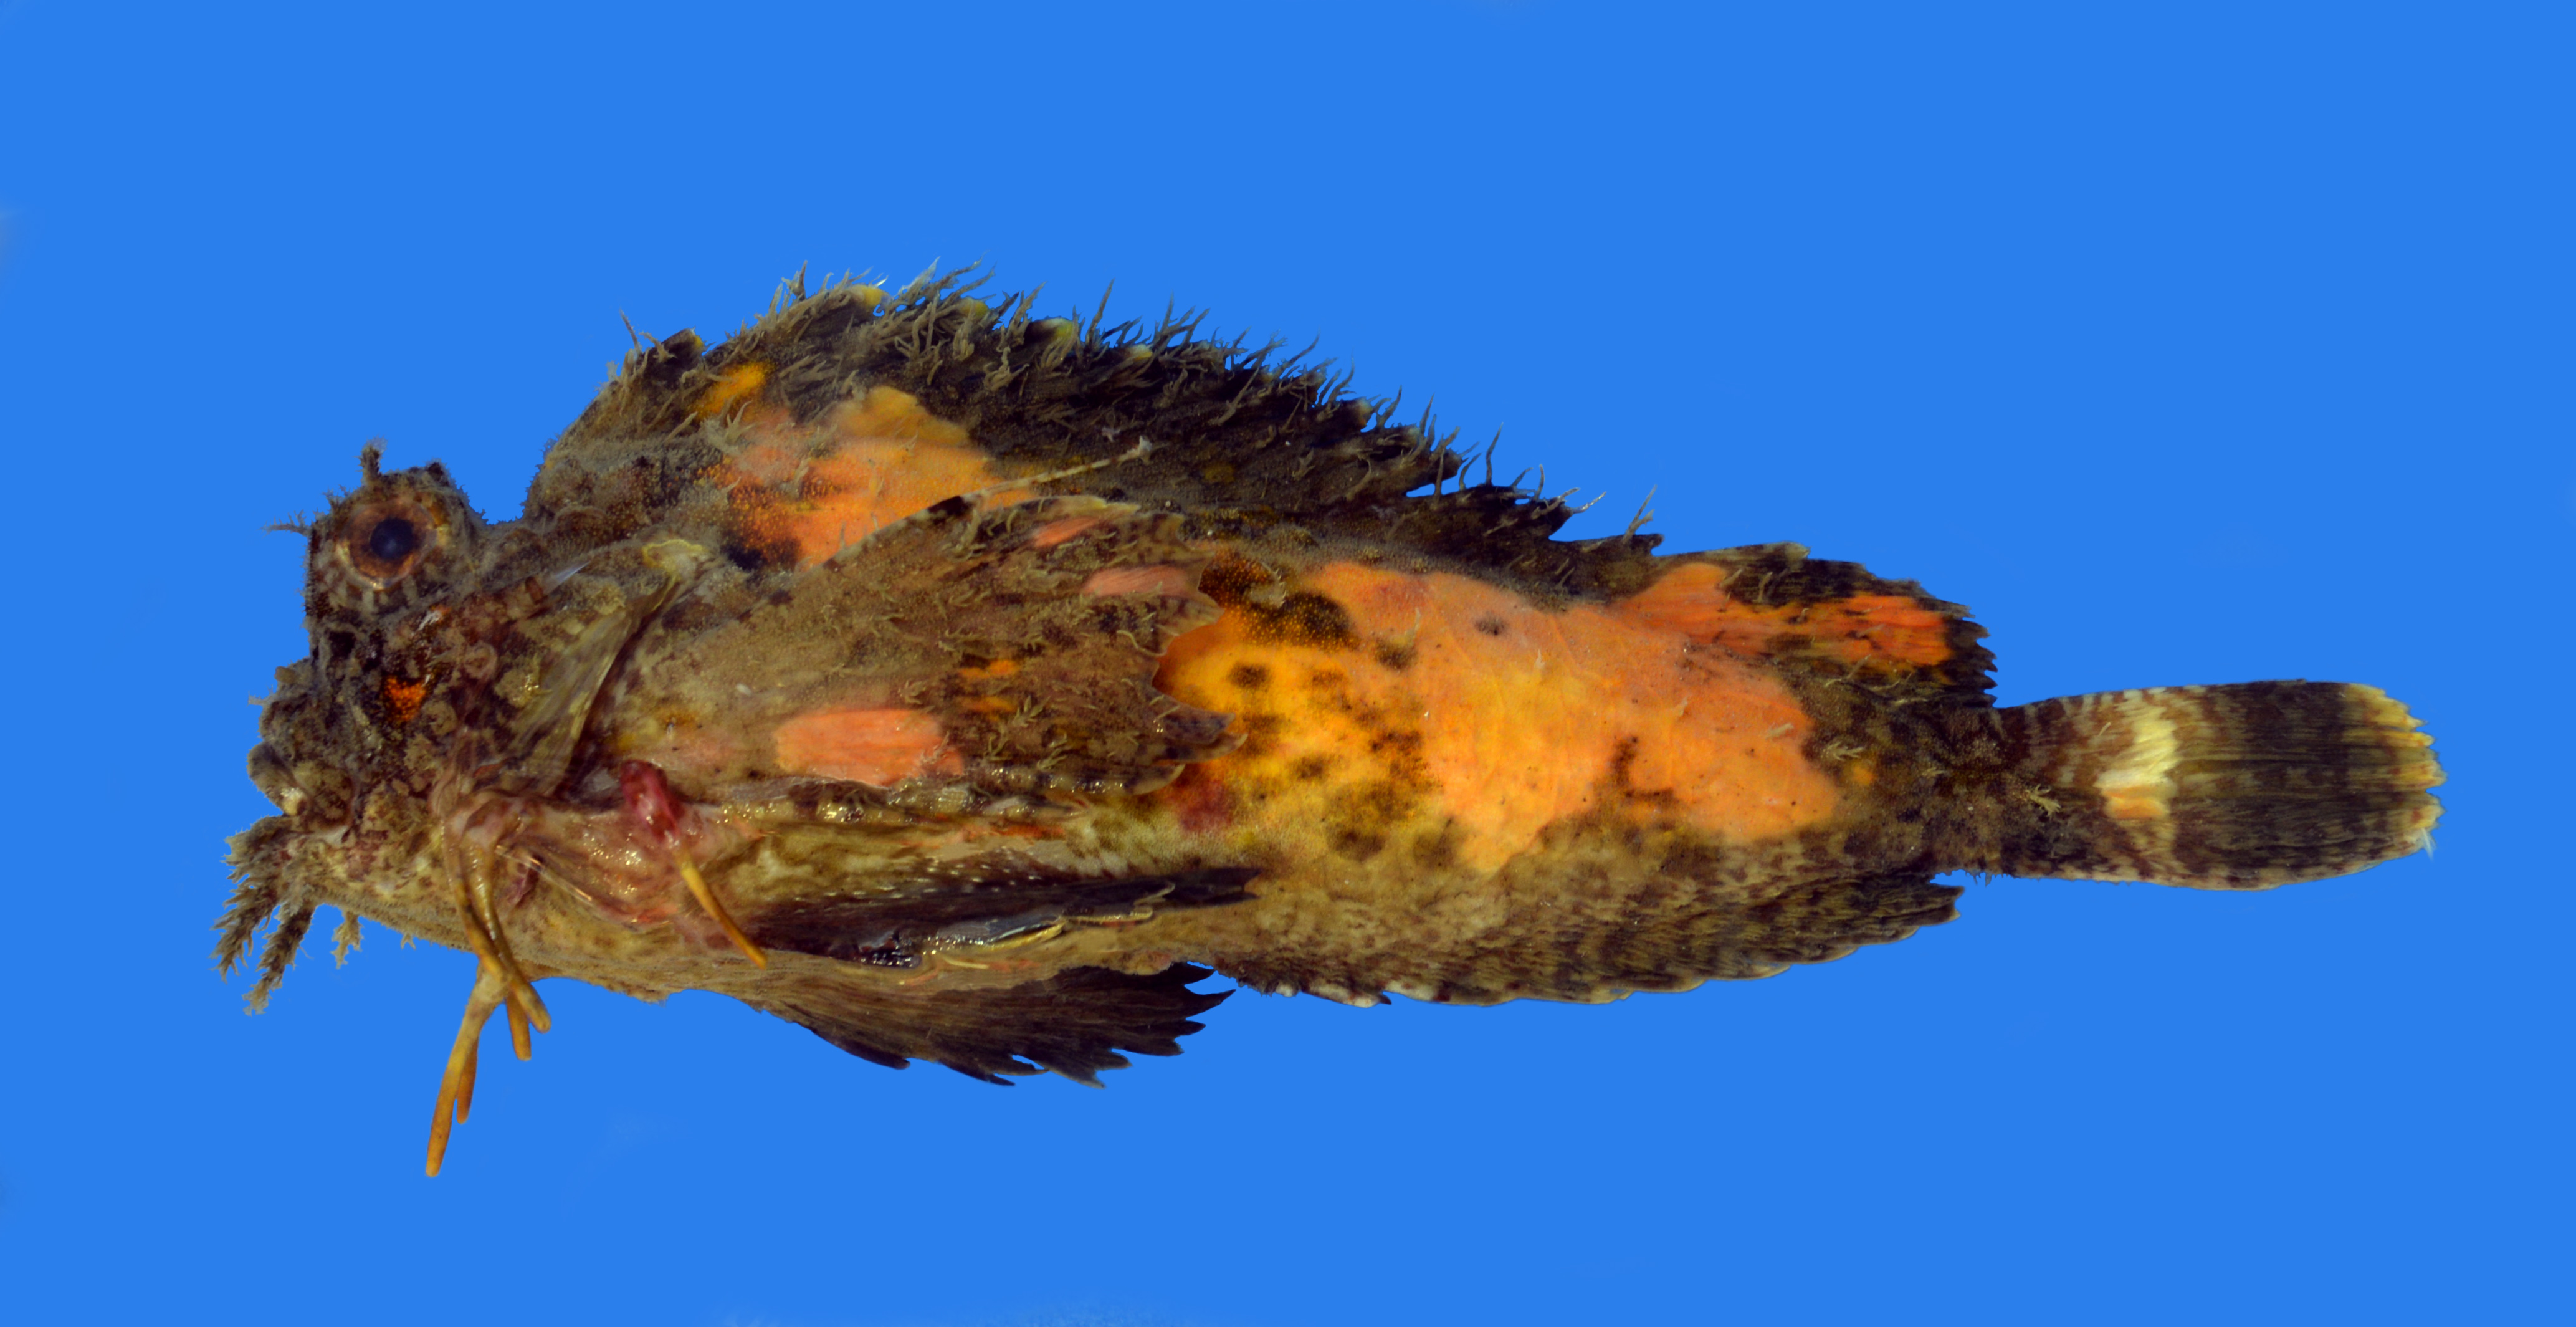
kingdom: Animalia
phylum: Chordata
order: Scorpaeniformes
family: Synanceiidae
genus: Choridactylus
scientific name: Choridactylus natalensis
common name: Threestick stingfish
